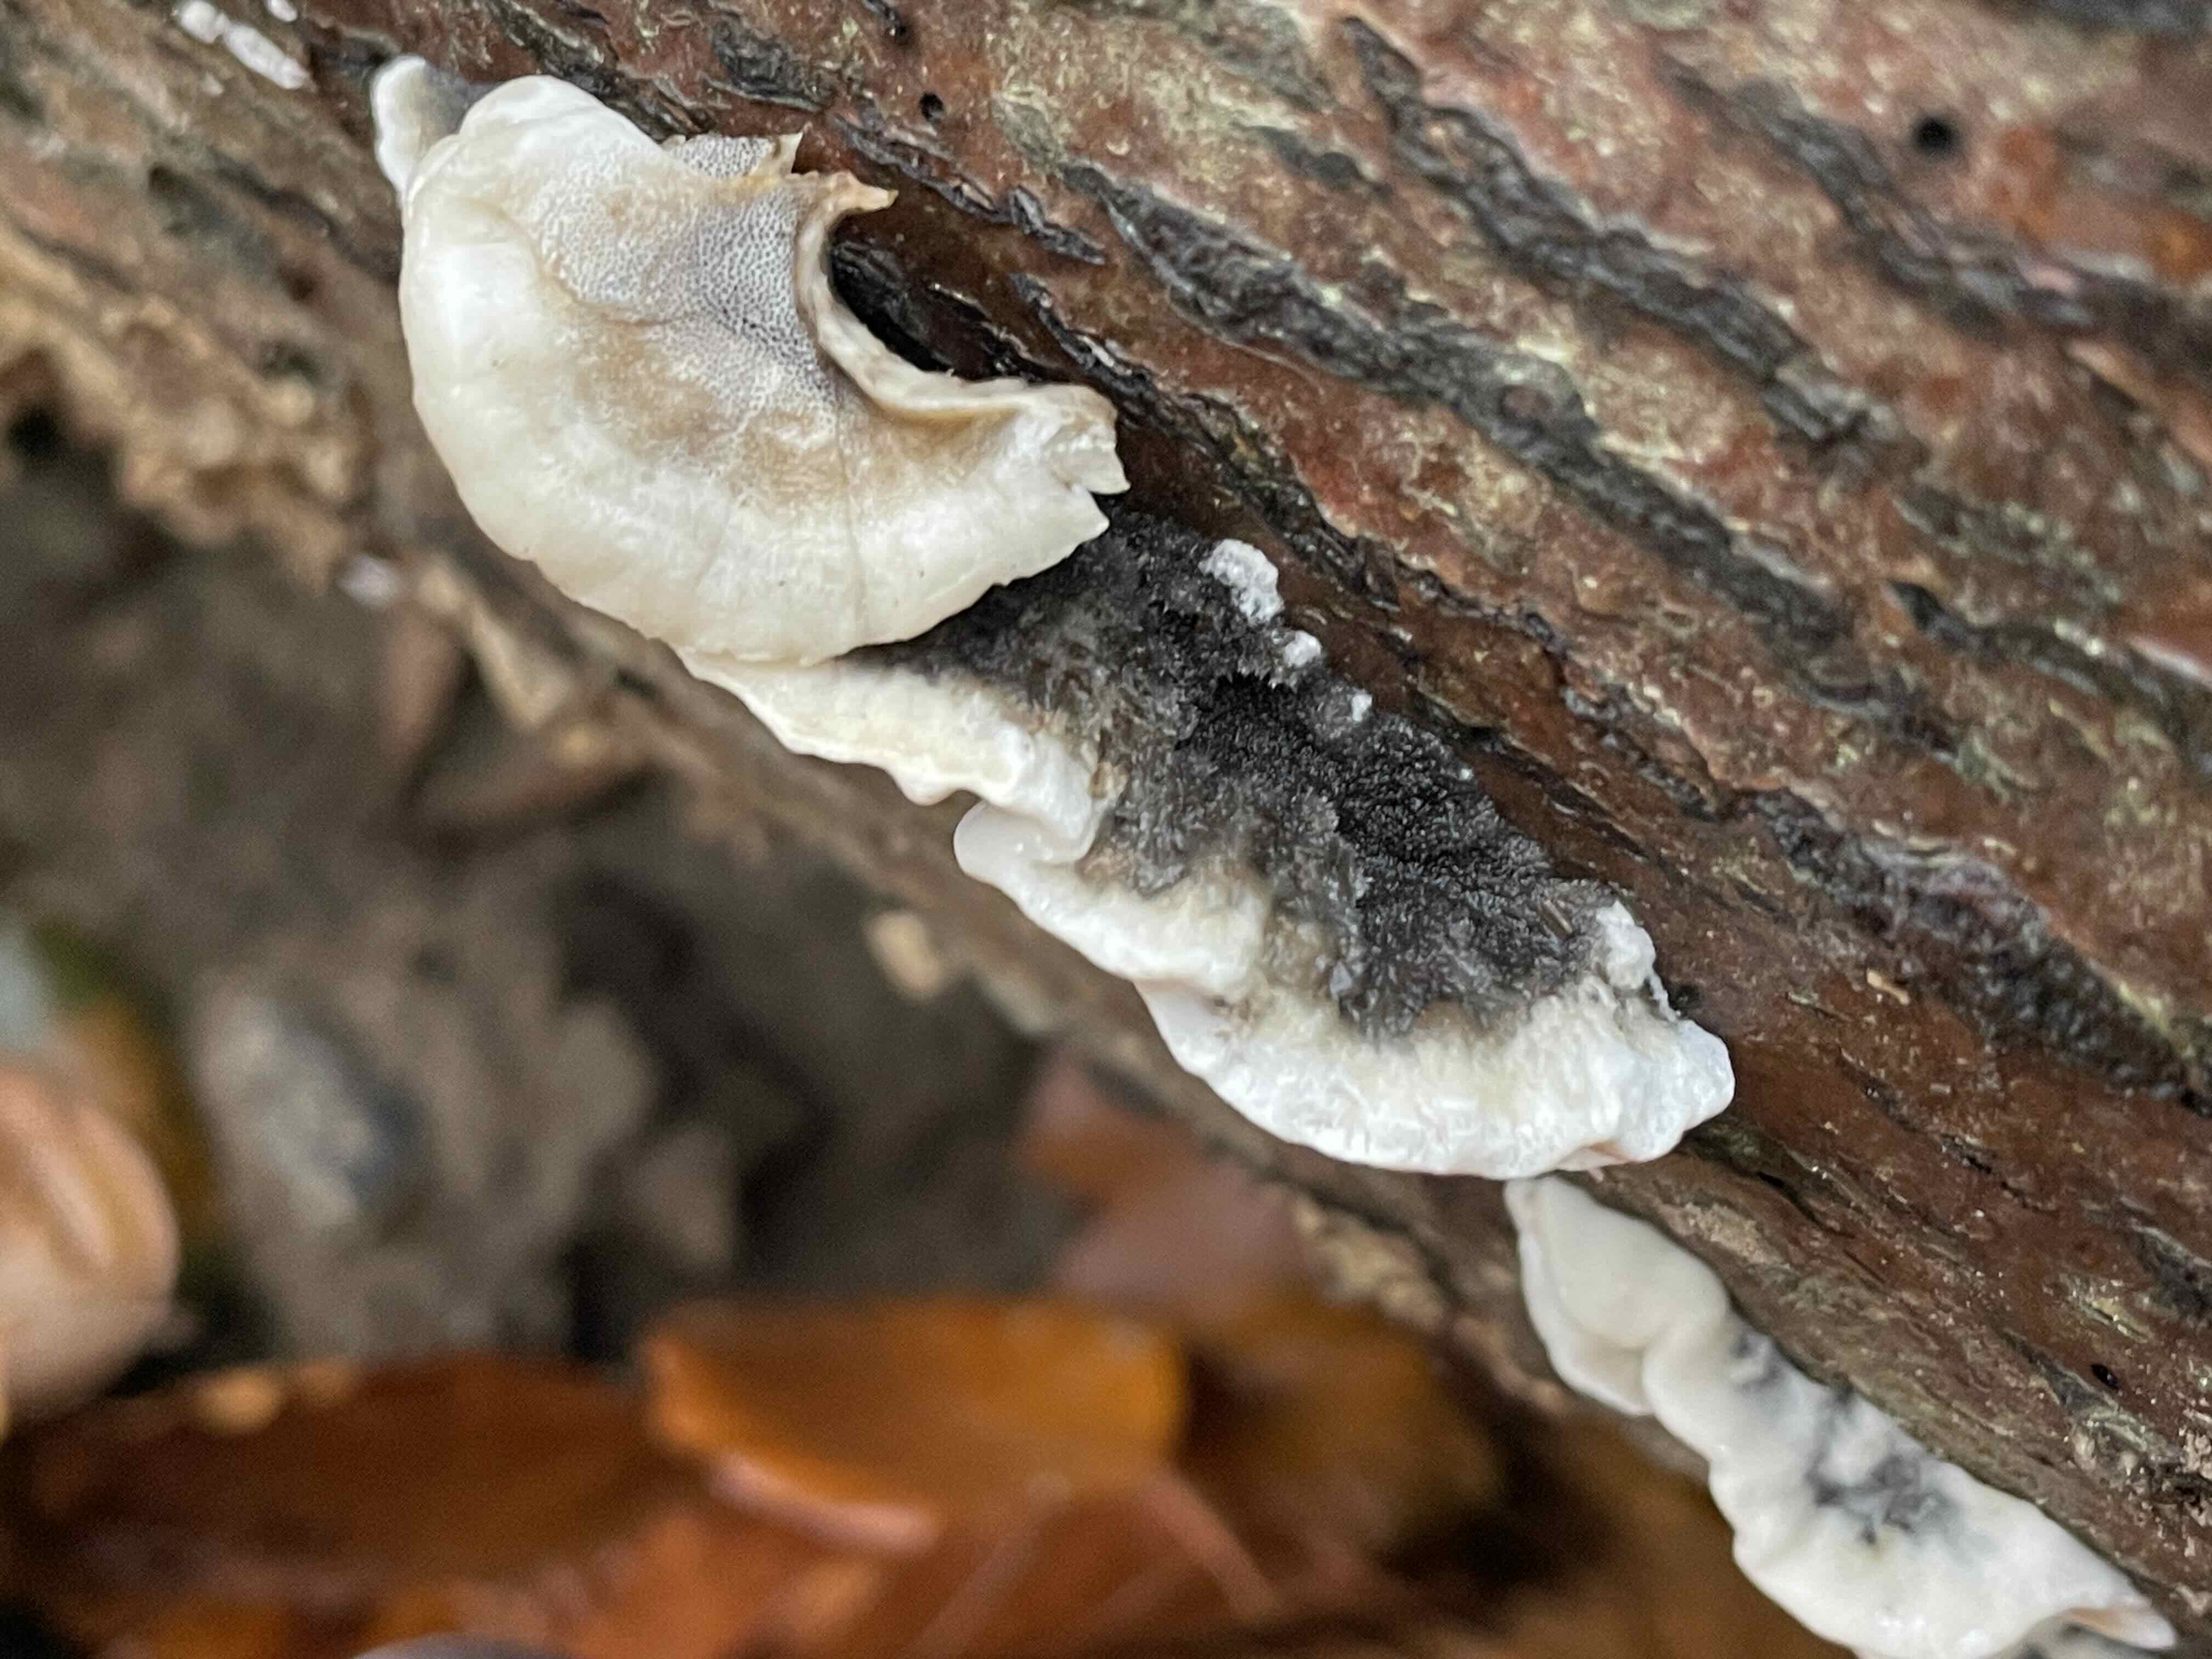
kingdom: Fungi
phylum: Basidiomycota
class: Agaricomycetes
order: Polyporales
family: Phanerochaetaceae
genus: Bjerkandera
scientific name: Bjerkandera adusta
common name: sveden sodporesvamp
